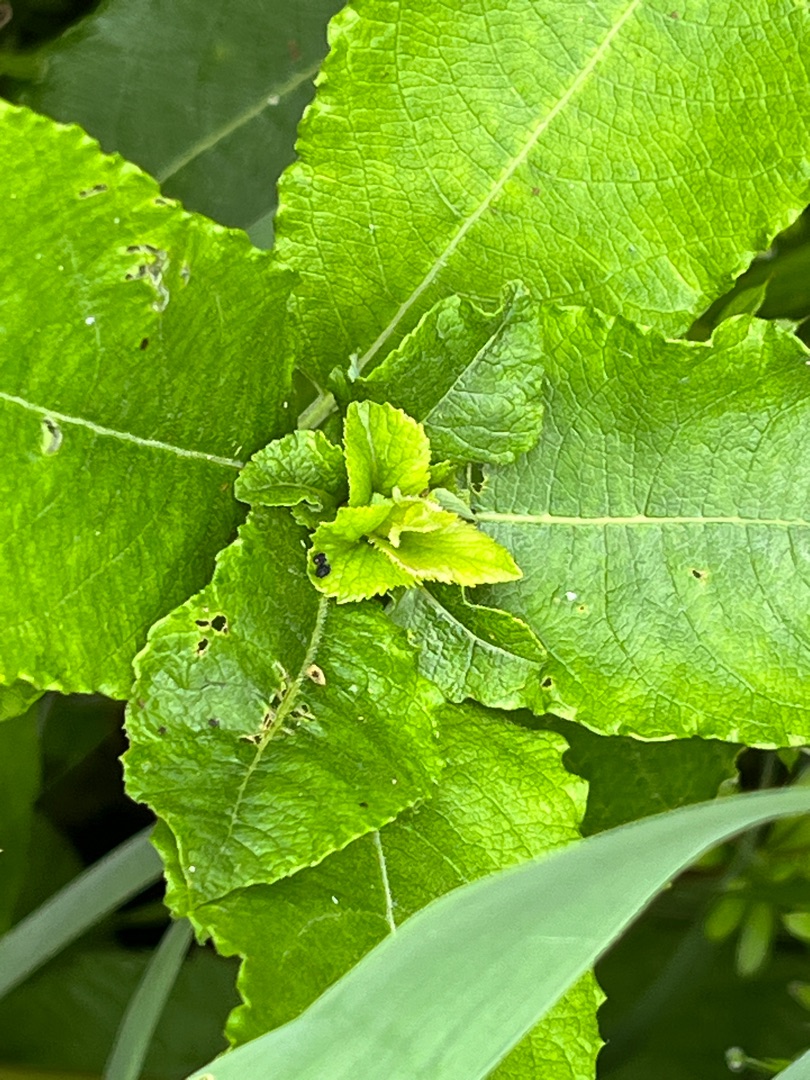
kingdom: Animalia
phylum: Arthropoda
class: Insecta
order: Diptera
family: Cecidomyiidae
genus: Rabdophaga
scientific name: Rabdophaga rosaria
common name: Pilerosetgalmyg
